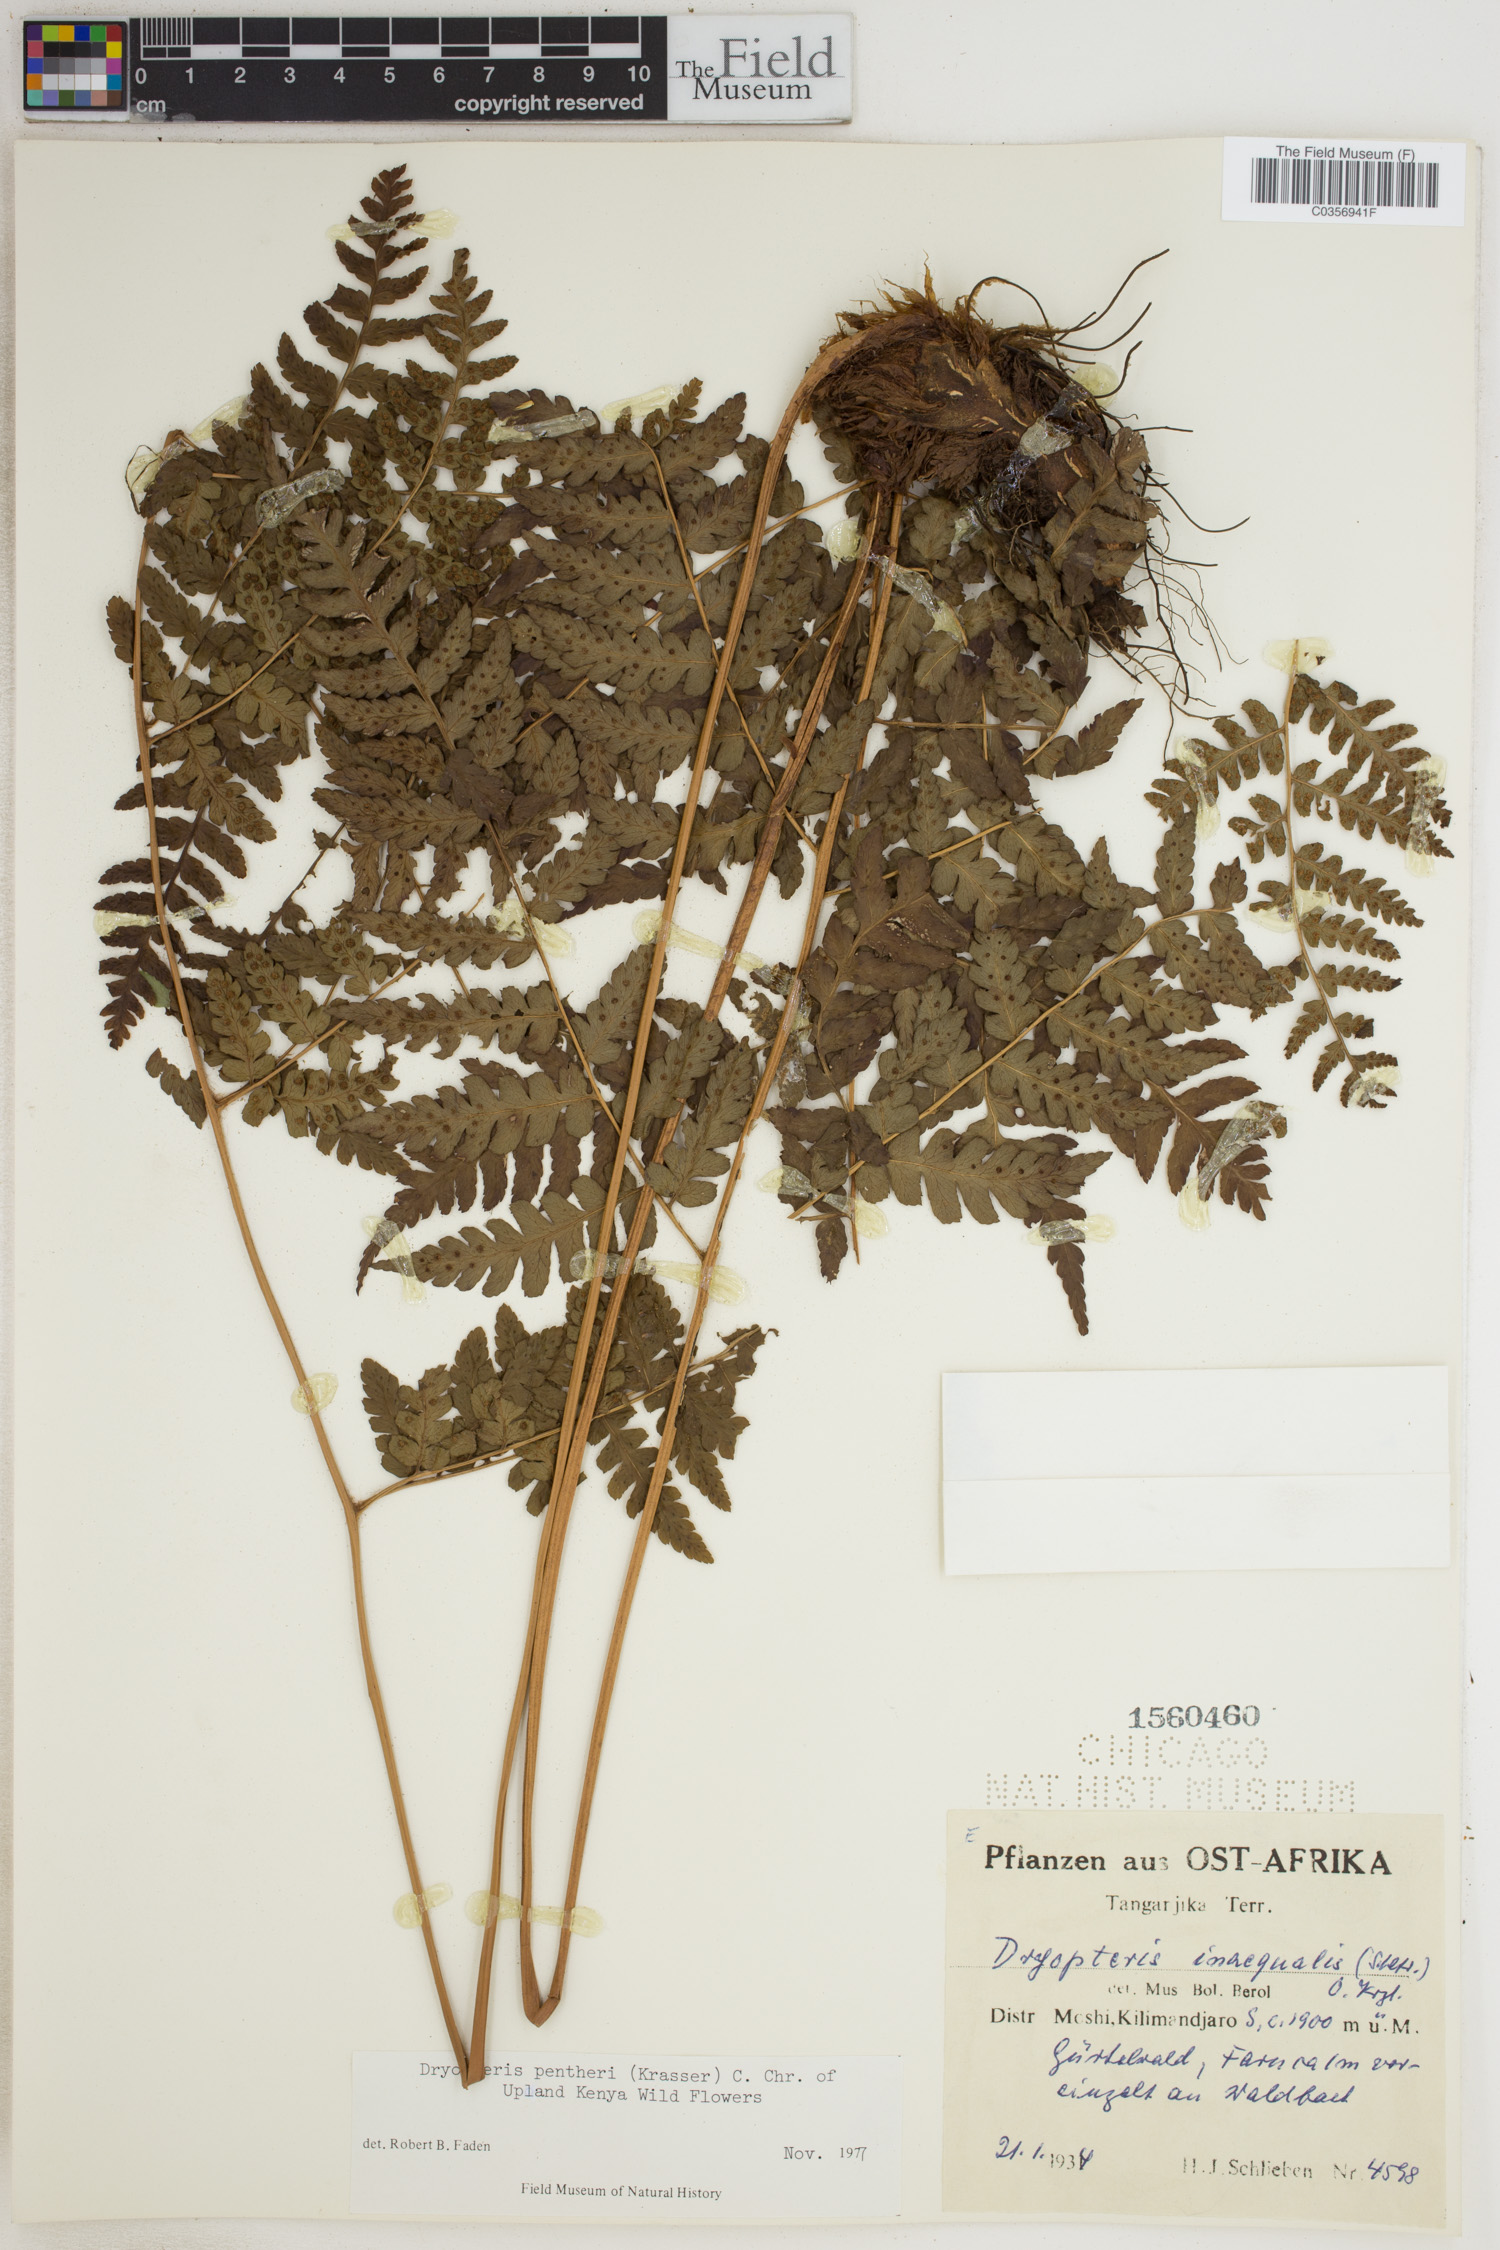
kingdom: Plantae
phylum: Tracheophyta
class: Polypodiopsida
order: Polypodiales
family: Dryopteridaceae
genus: Dryopteris
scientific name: Dryopteris pentheri
